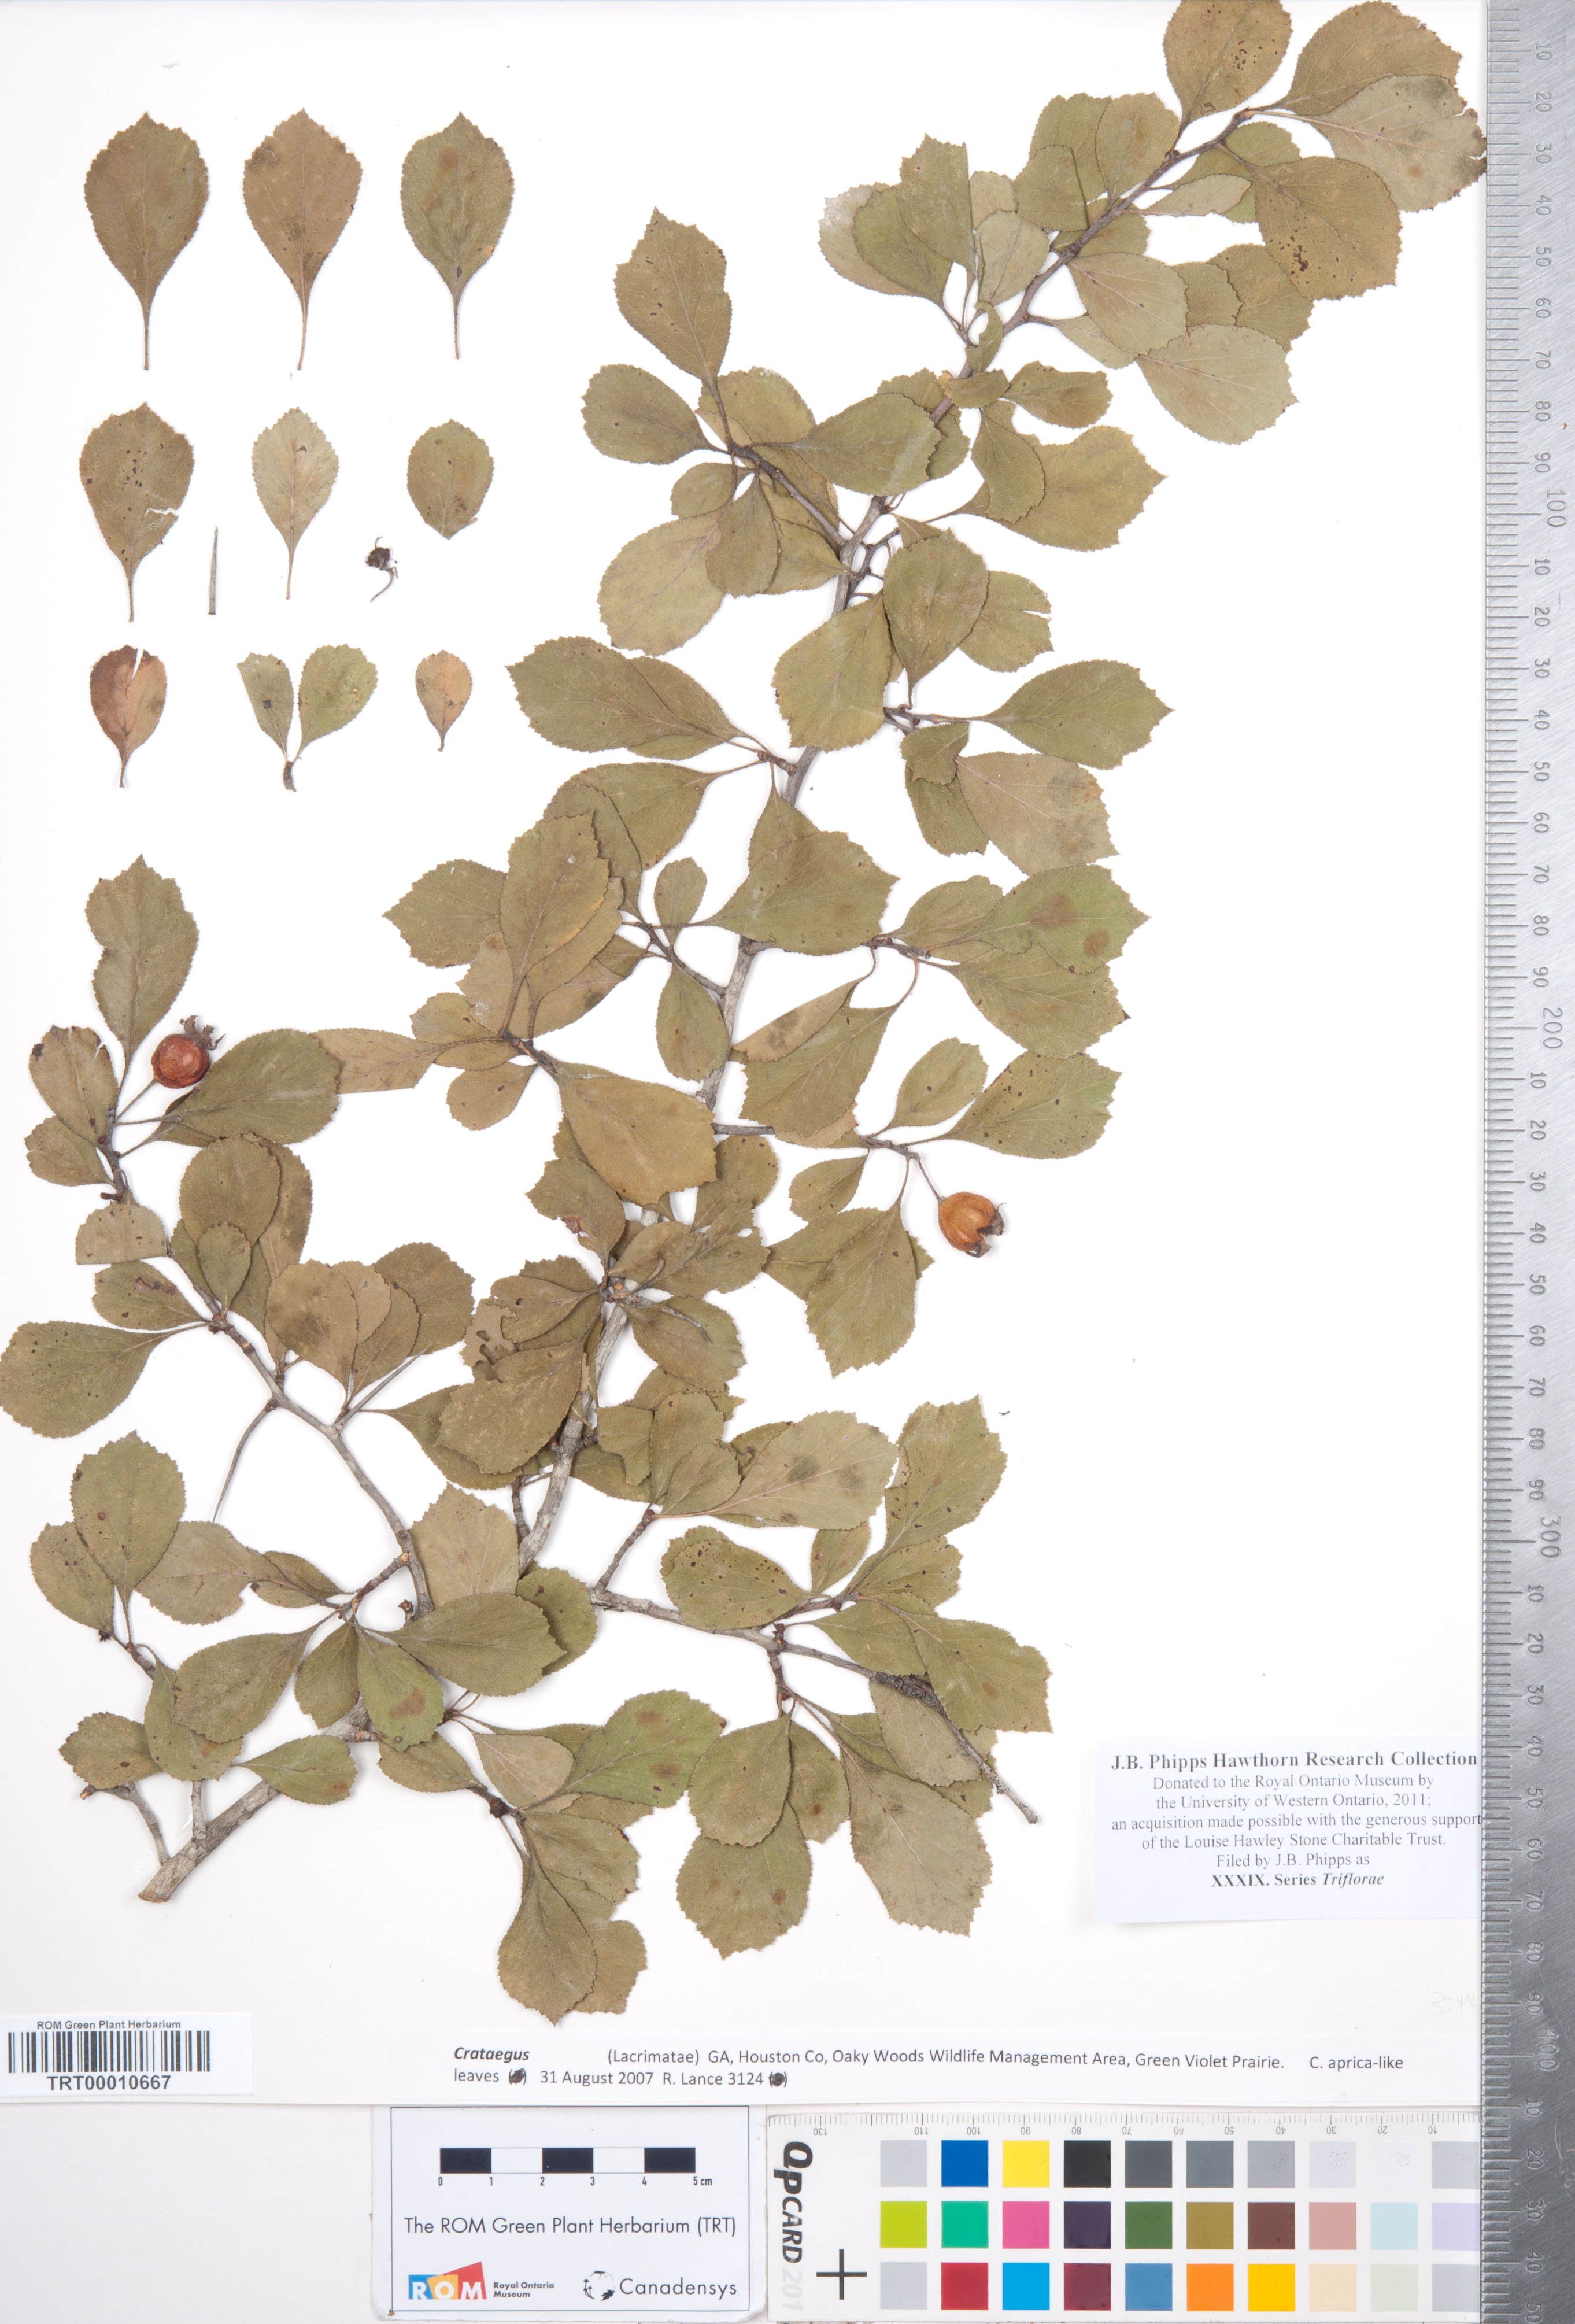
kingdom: Plantae
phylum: Tracheophyta
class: Magnoliopsida
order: Rosales
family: Rosaceae
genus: Crataegus
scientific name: Crataegus
